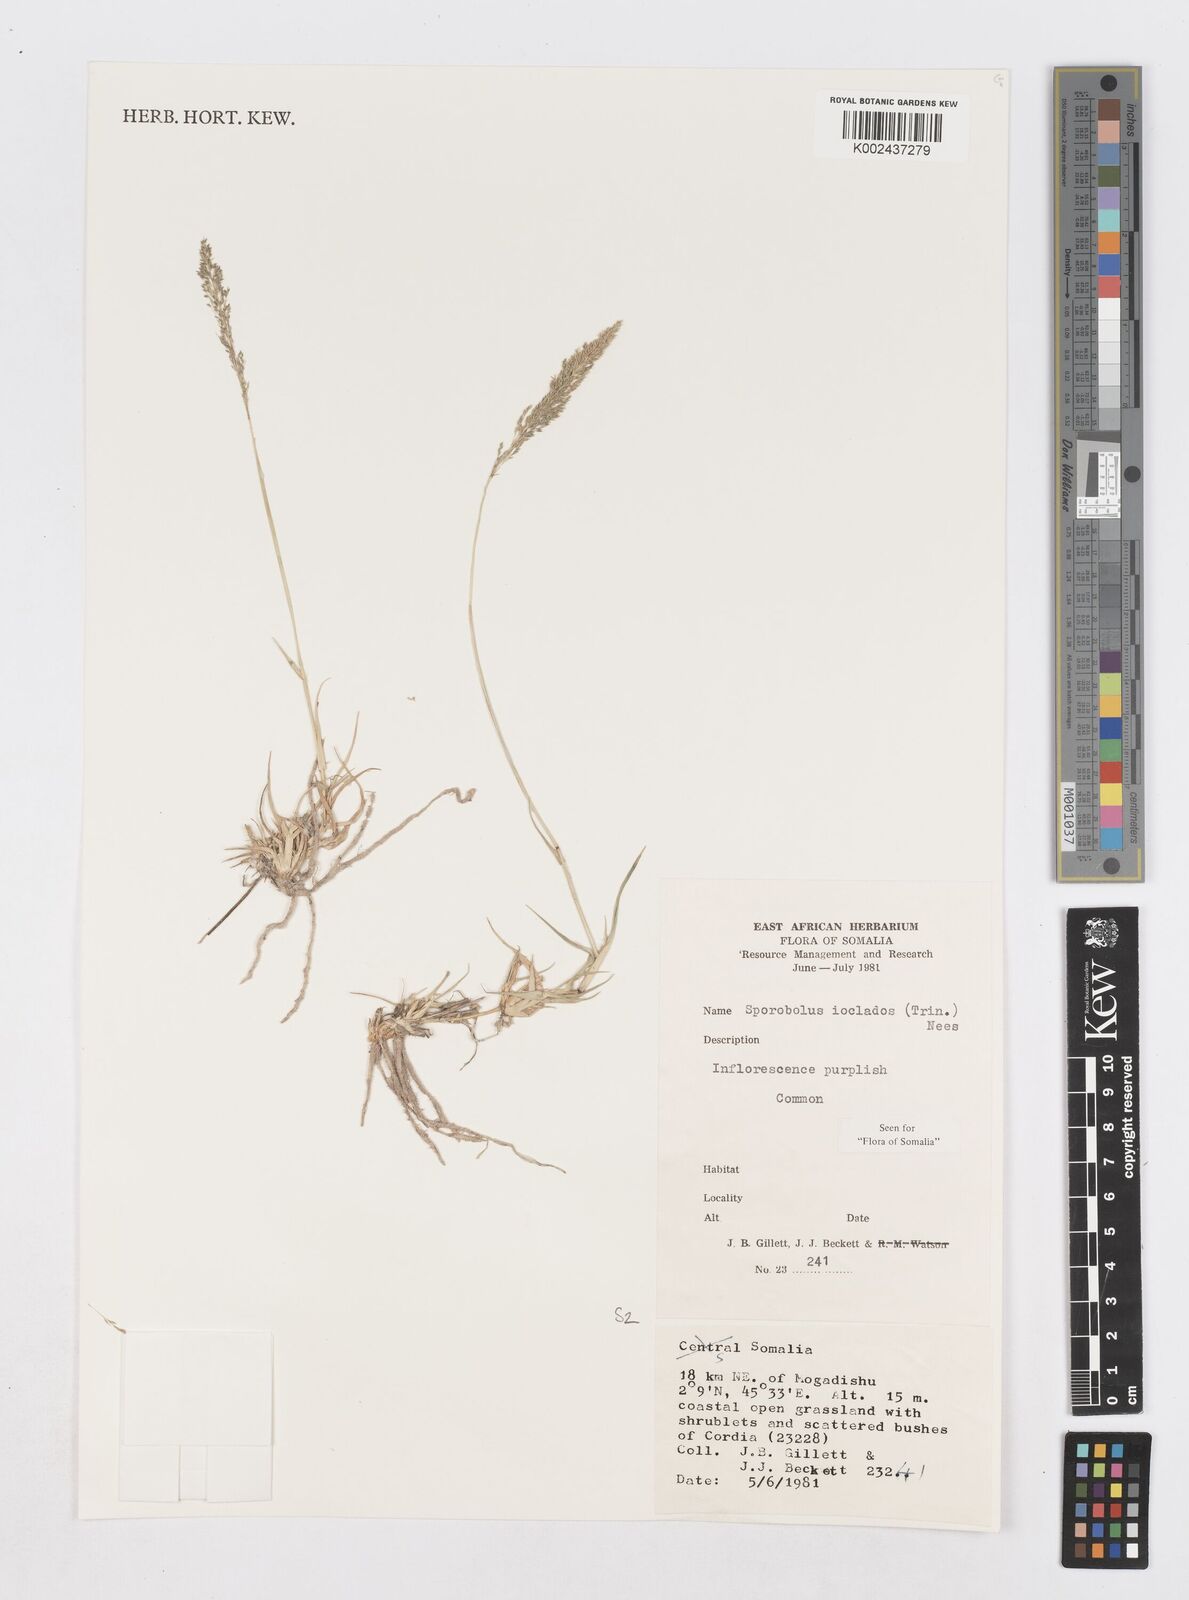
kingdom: Plantae
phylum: Tracheophyta
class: Liliopsida
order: Poales
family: Poaceae
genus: Sporobolus
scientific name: Sporobolus ioclados
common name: Pan dropseed
